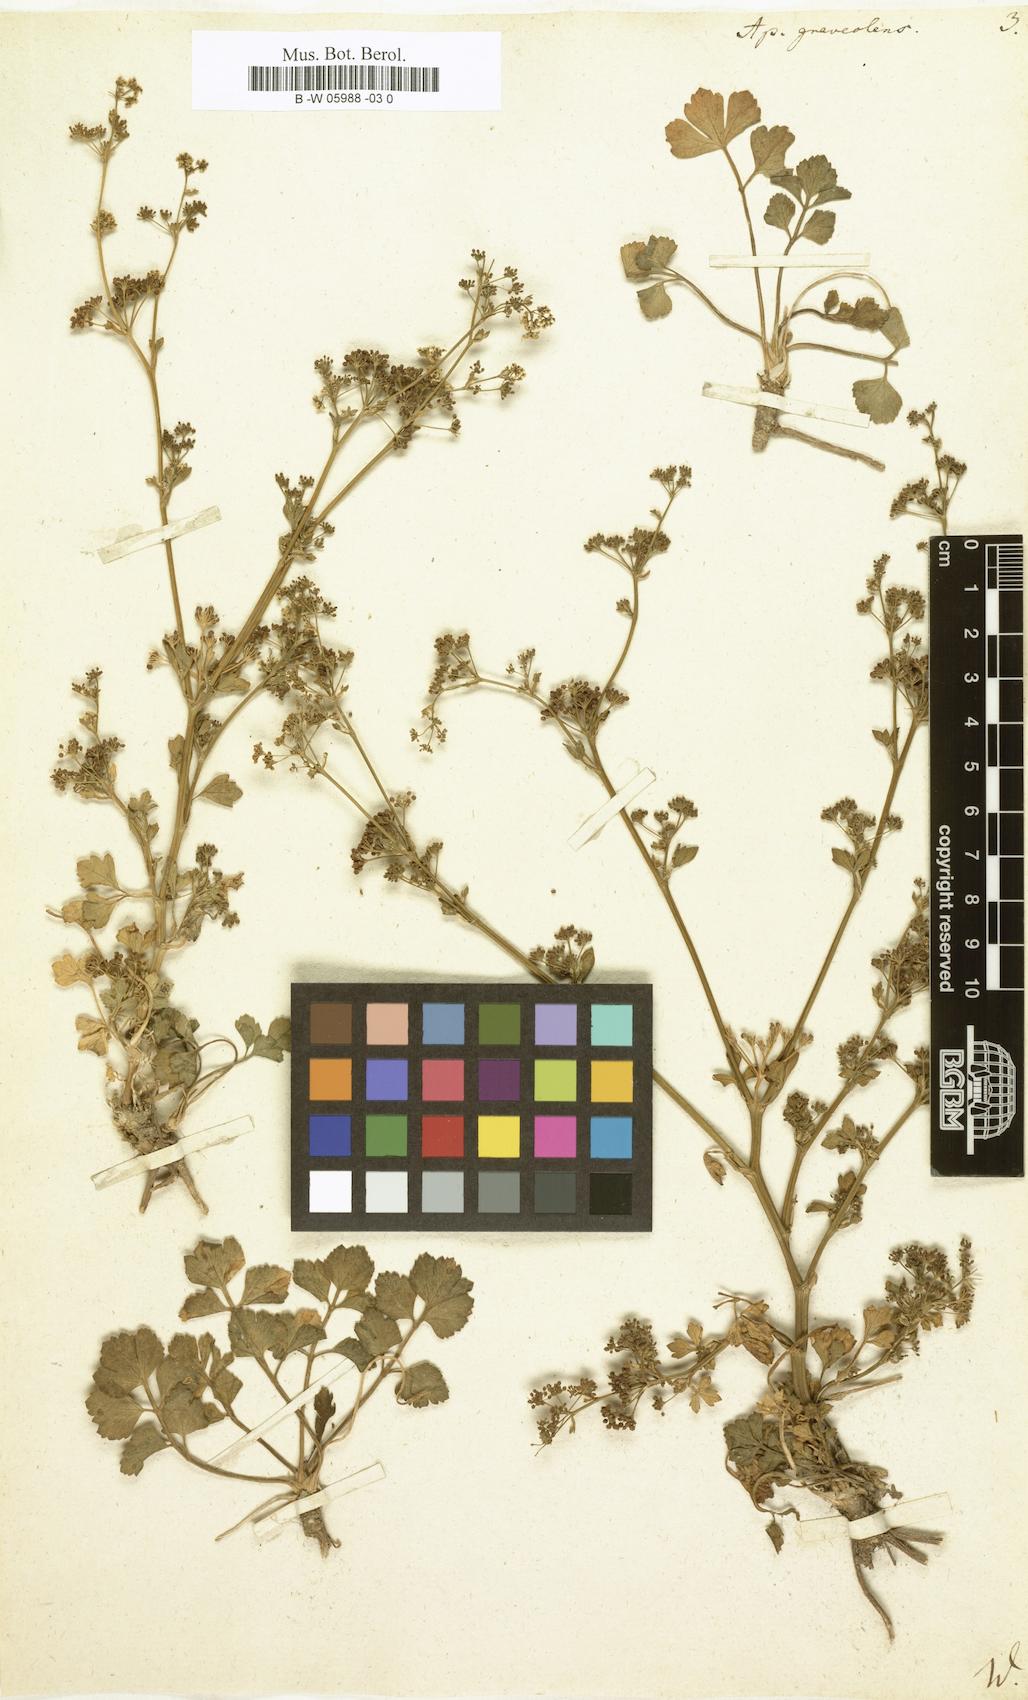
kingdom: Plantae
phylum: Tracheophyta
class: Magnoliopsida
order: Apiales
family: Apiaceae
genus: Apium
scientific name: Apium graveolens
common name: Wild celery
